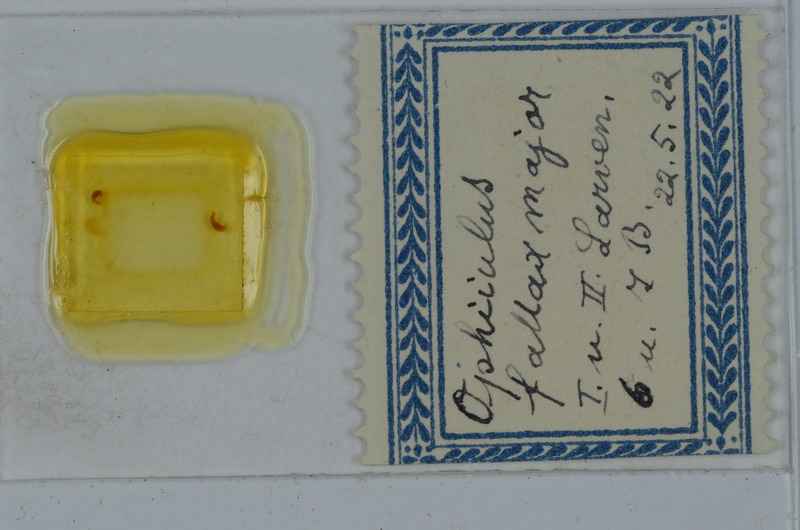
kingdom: Animalia
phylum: Arthropoda
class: Diplopoda
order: Julida
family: Julidae
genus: Ophyiulus
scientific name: Ophyiulus pilosus
